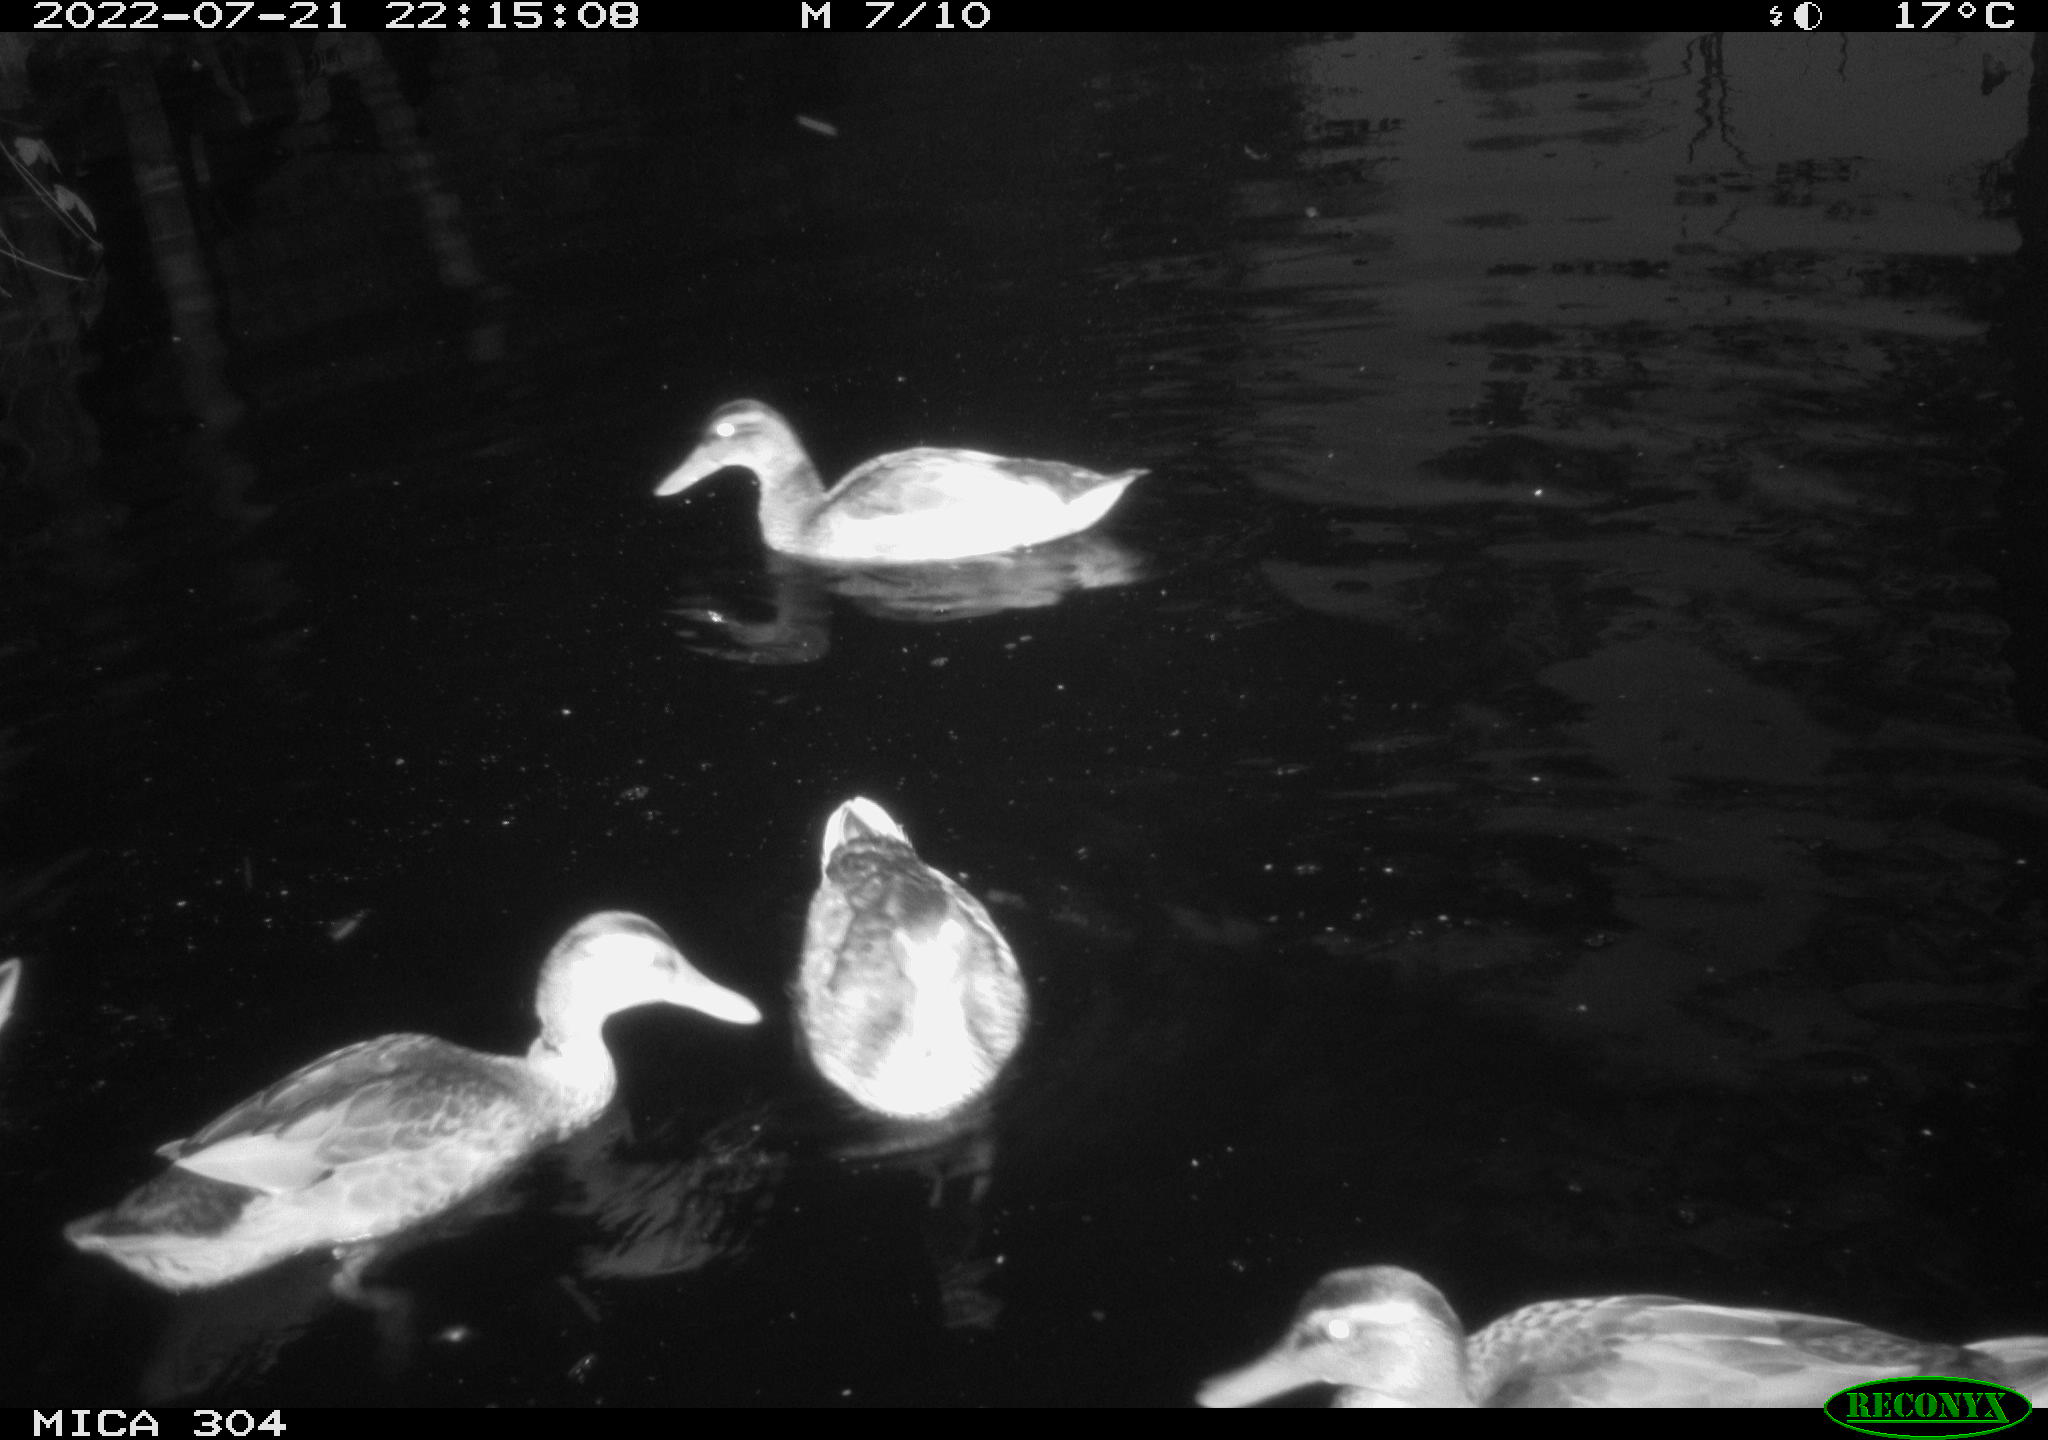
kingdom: Animalia
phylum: Chordata
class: Aves
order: Anseriformes
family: Anatidae
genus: Anas
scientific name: Anas platyrhynchos
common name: Mallard
